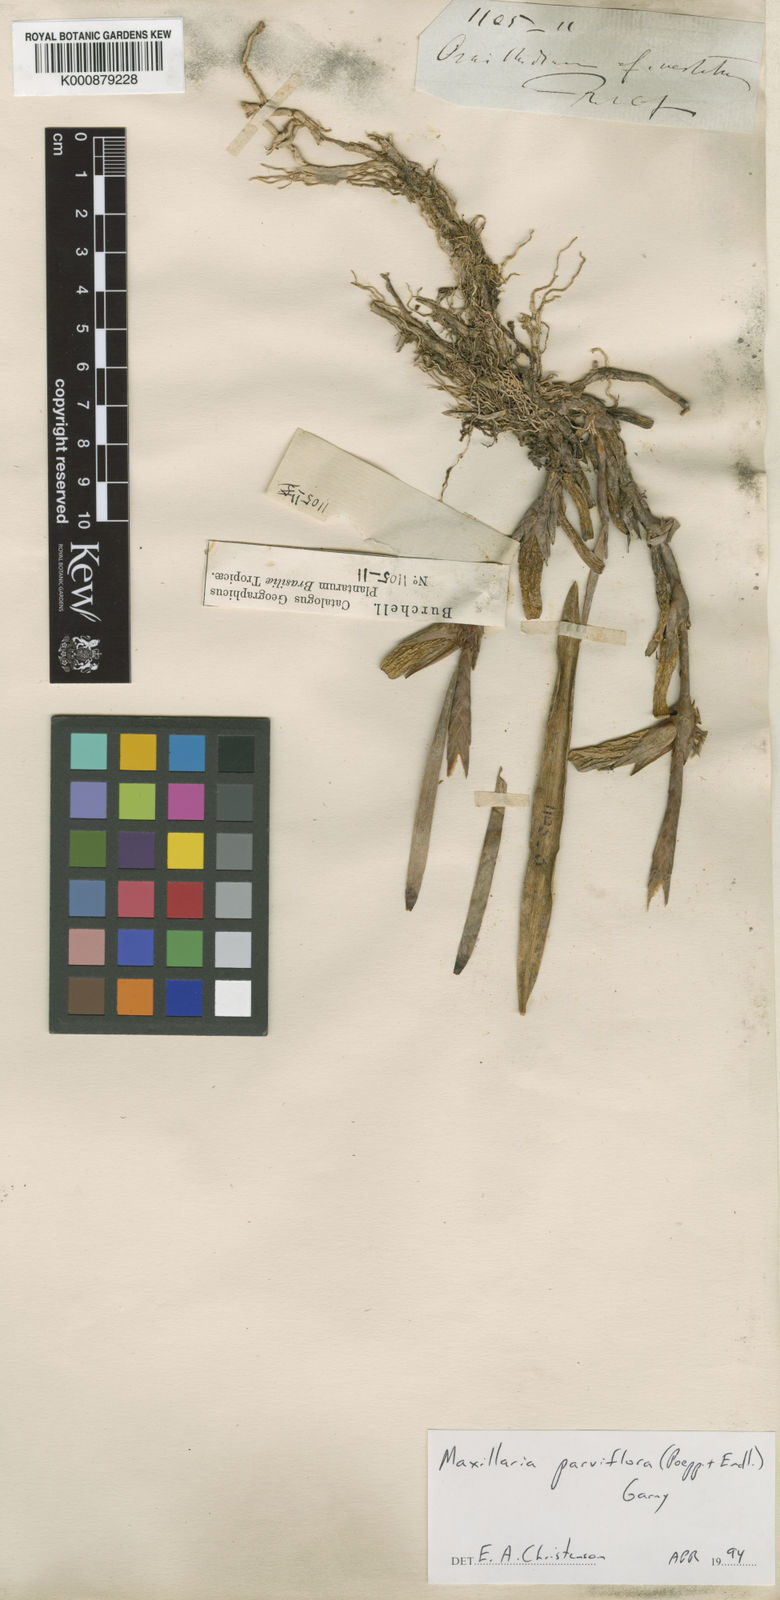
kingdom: Plantae
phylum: Tracheophyta
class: Liliopsida
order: Asparagales
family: Orchidaceae
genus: Maxillaria
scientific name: Maxillaria parviflora
